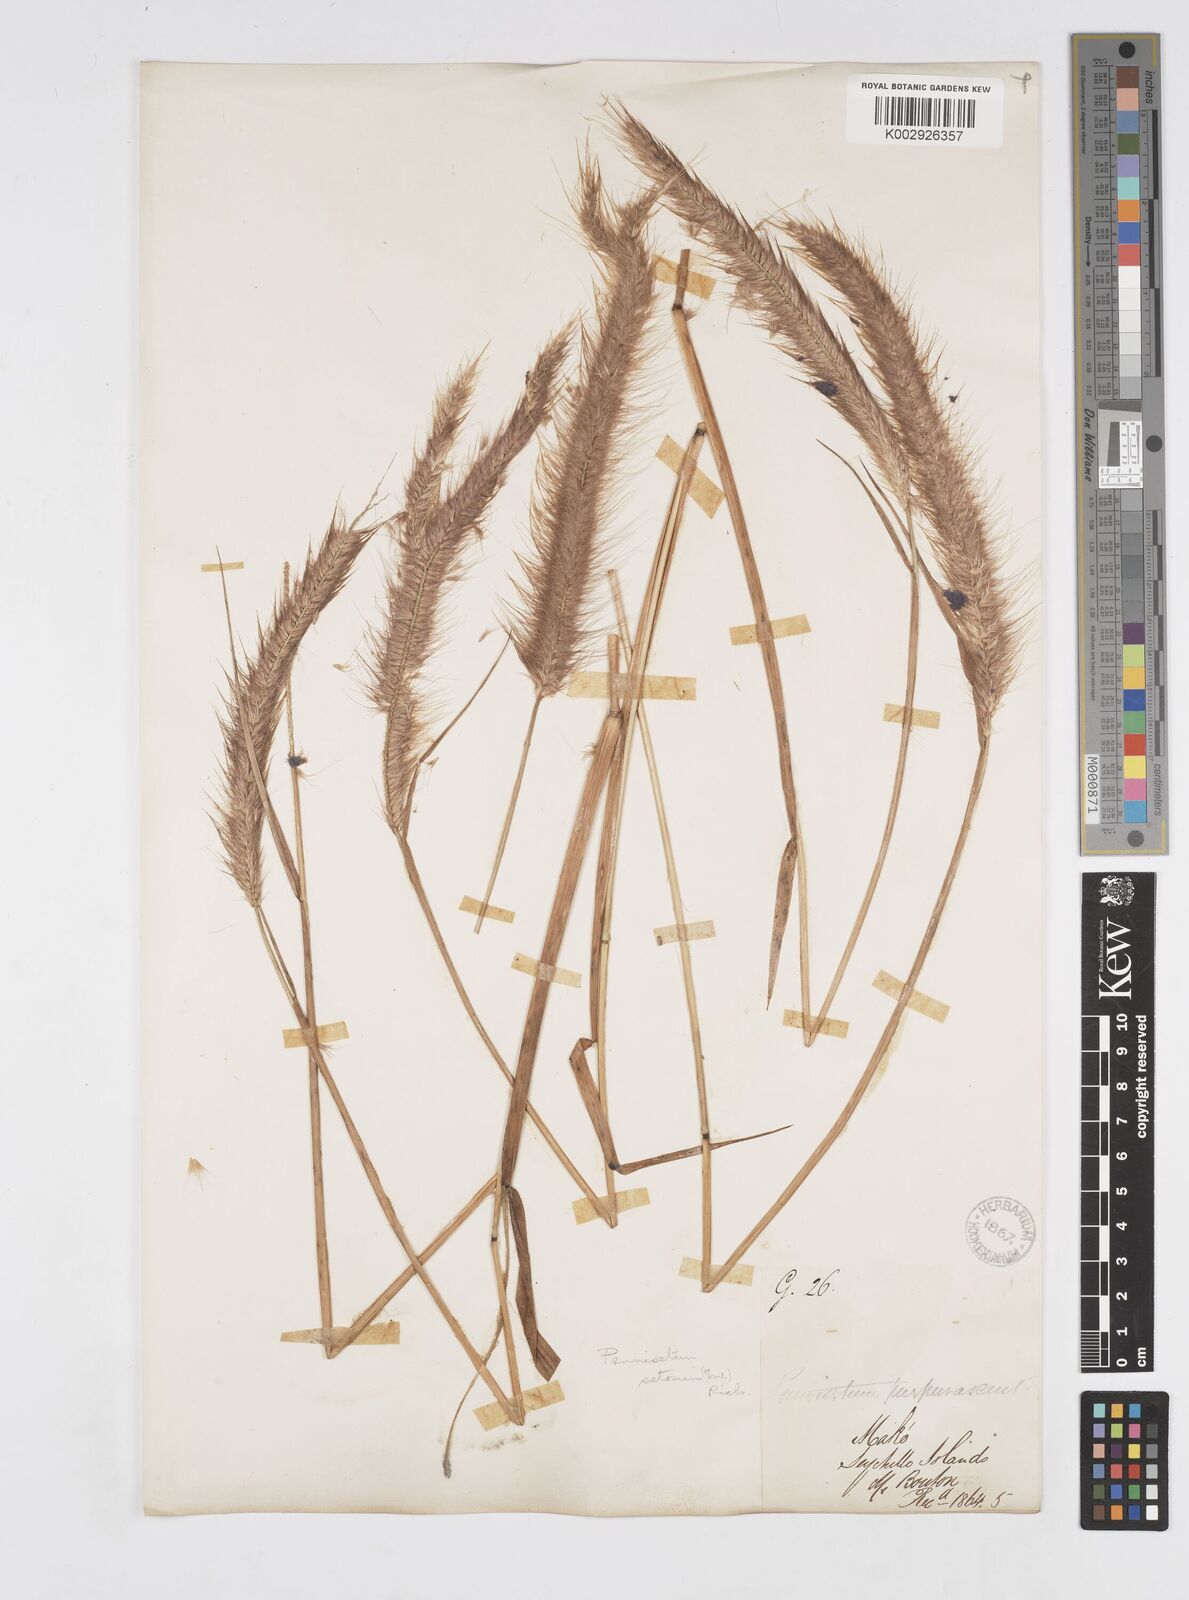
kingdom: Plantae
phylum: Tracheophyta
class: Liliopsida
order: Poales
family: Poaceae
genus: Setaria
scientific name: Setaria parviflora
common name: Knotroot bristle-grass
